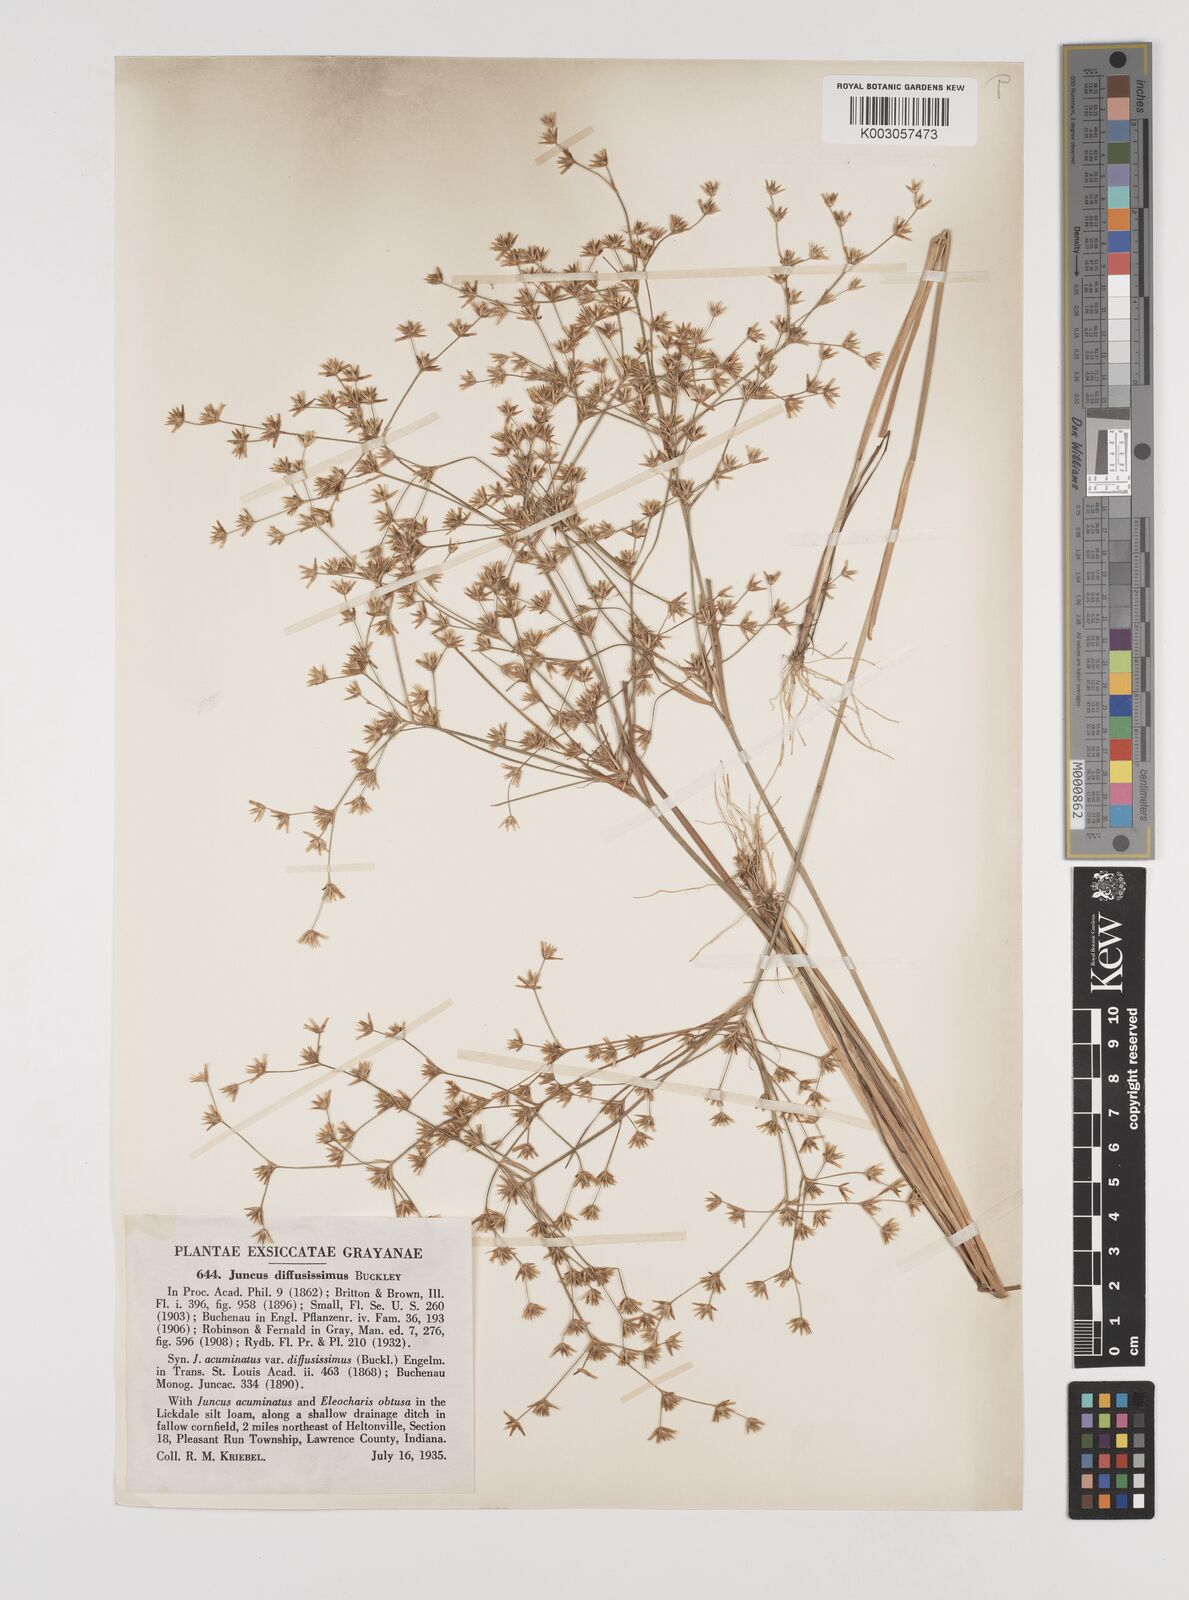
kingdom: Plantae
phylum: Tracheophyta
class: Liliopsida
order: Poales
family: Juncaceae
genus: Juncus
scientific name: Juncus diffusissimus
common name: Slimpod rush
